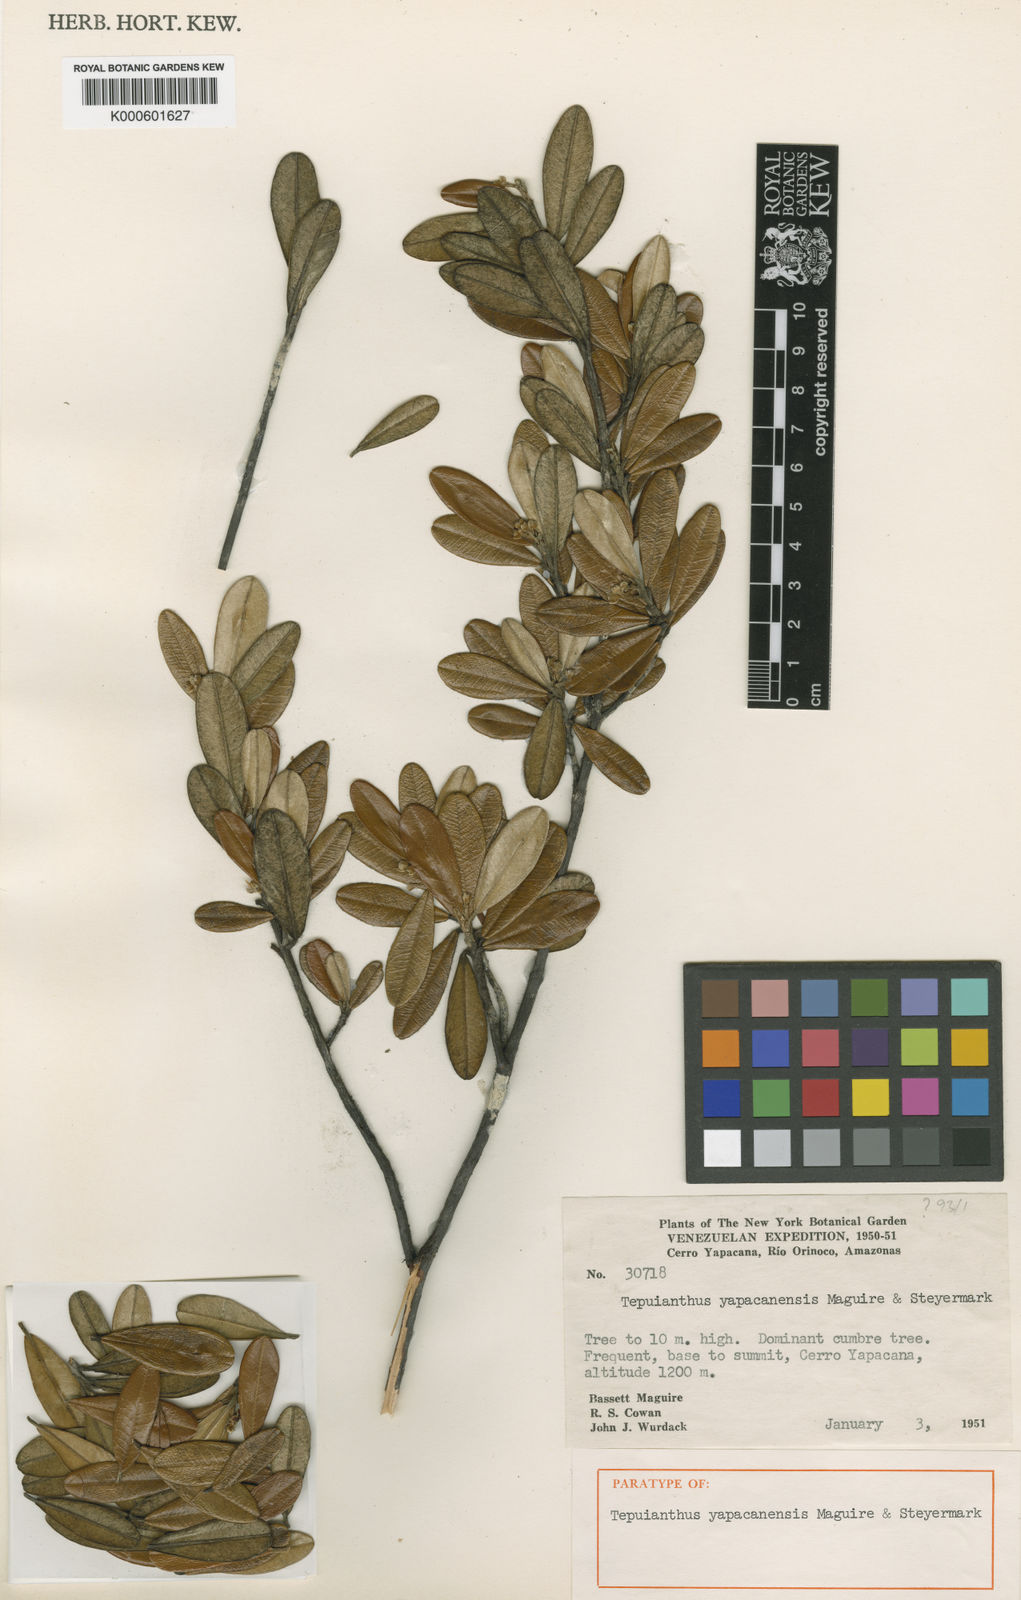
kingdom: Plantae
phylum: Tracheophyta
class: Magnoliopsida
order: Malvales
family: Thymelaeaceae
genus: Tepuianthus
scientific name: Tepuianthus yapacanensis
